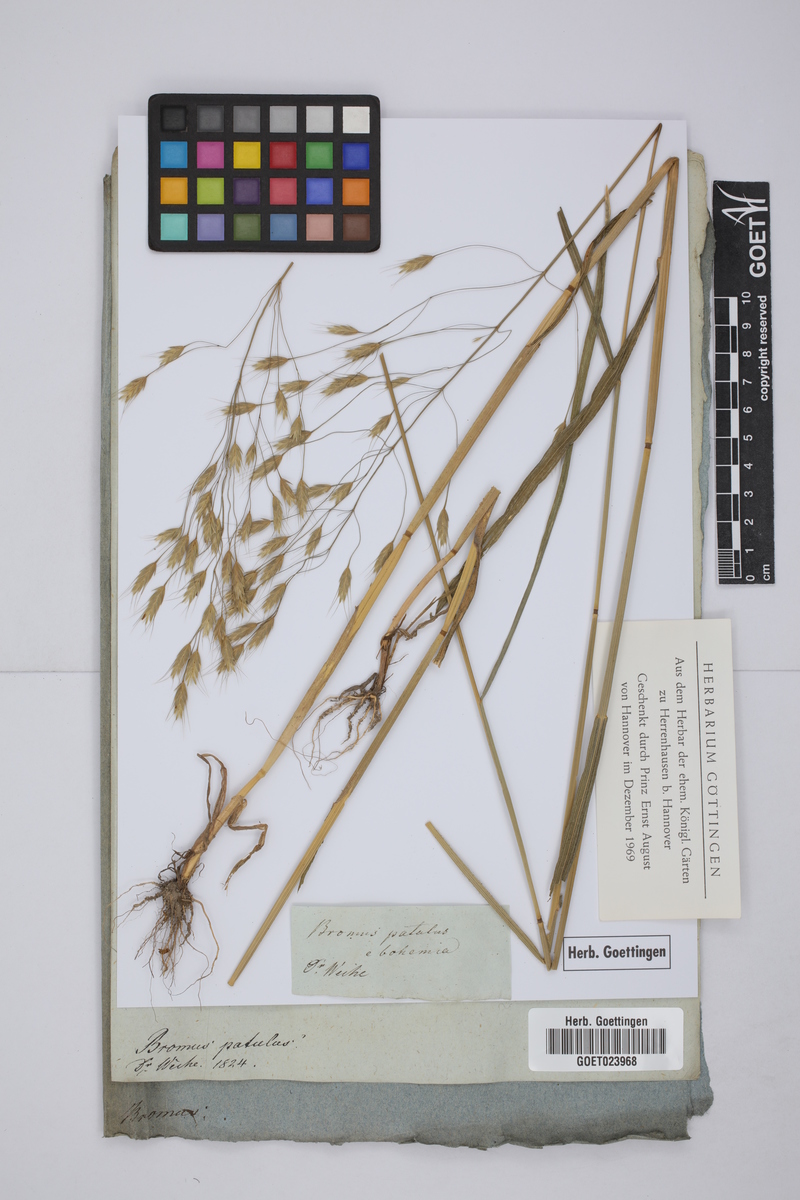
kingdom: Plantae
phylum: Tracheophyta
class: Liliopsida
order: Poales
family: Poaceae
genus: Bromus
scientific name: Bromus japonicus
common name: Japanese brome
